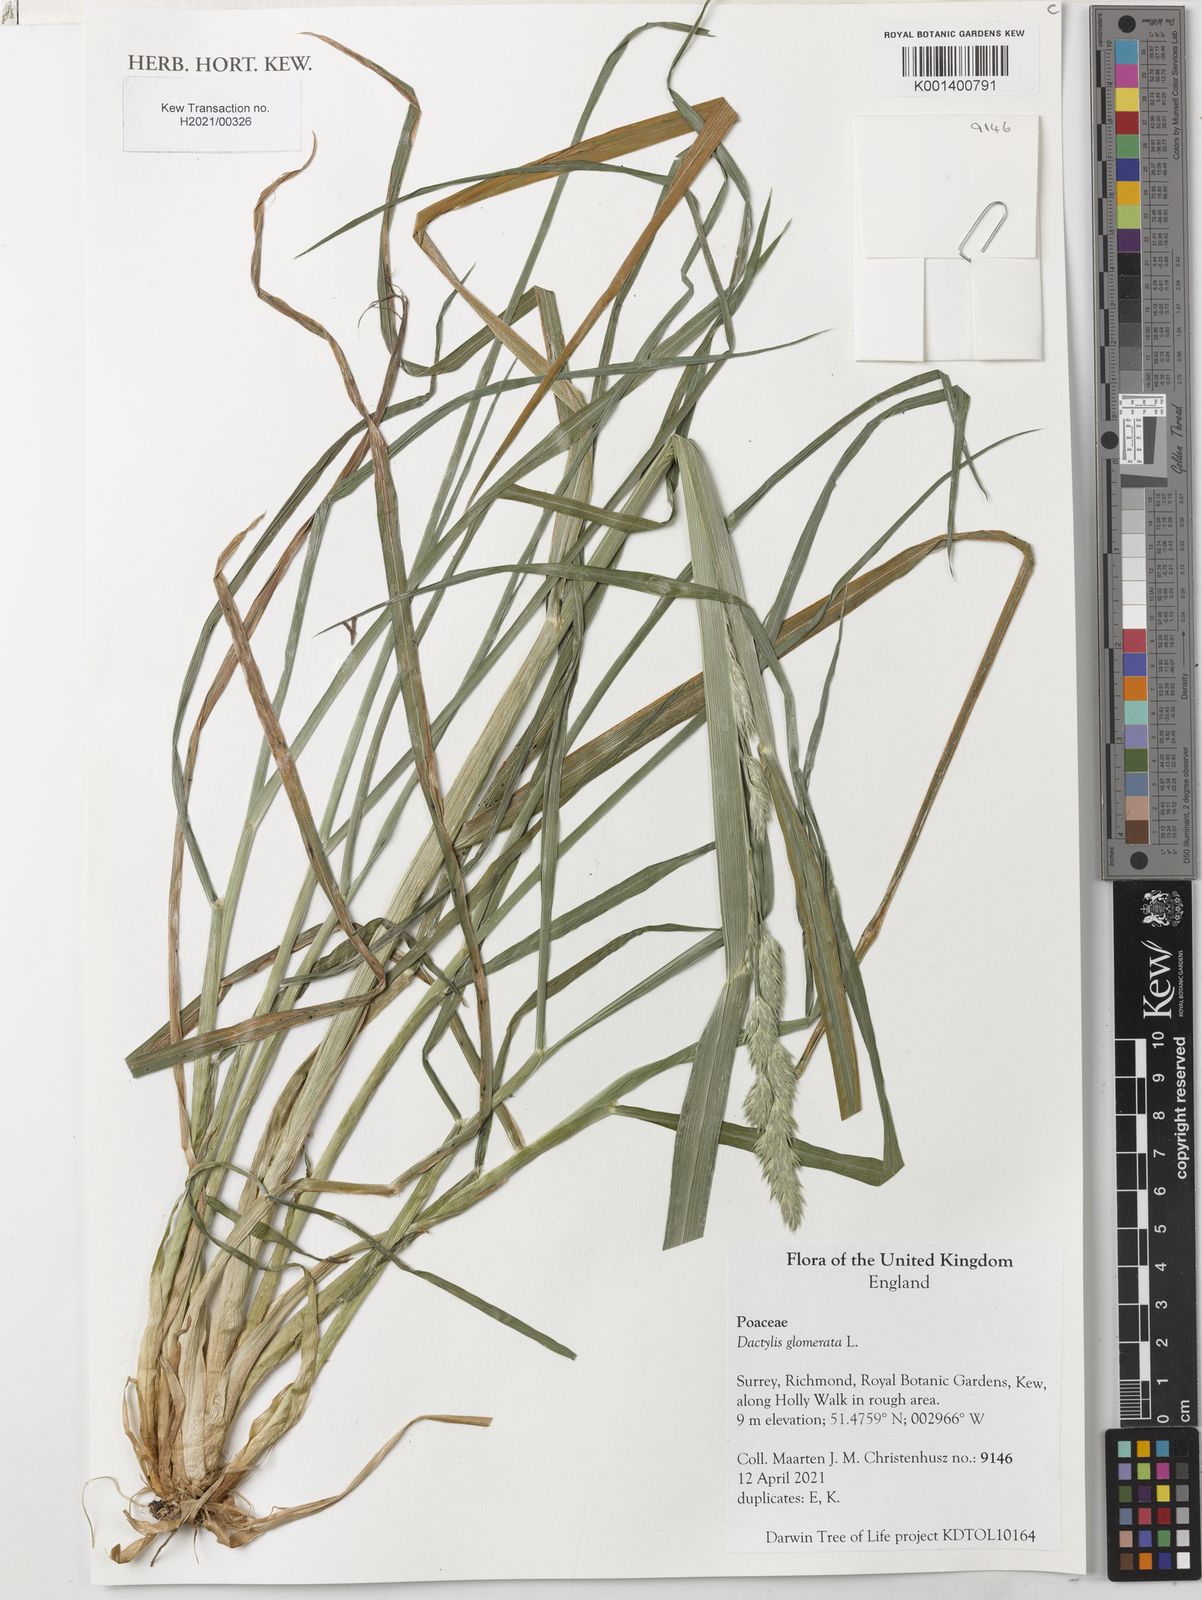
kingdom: Plantae
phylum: Tracheophyta
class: Liliopsida
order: Poales
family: Poaceae
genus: Dactylis
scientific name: Dactylis glomerata
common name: Orchardgrass
